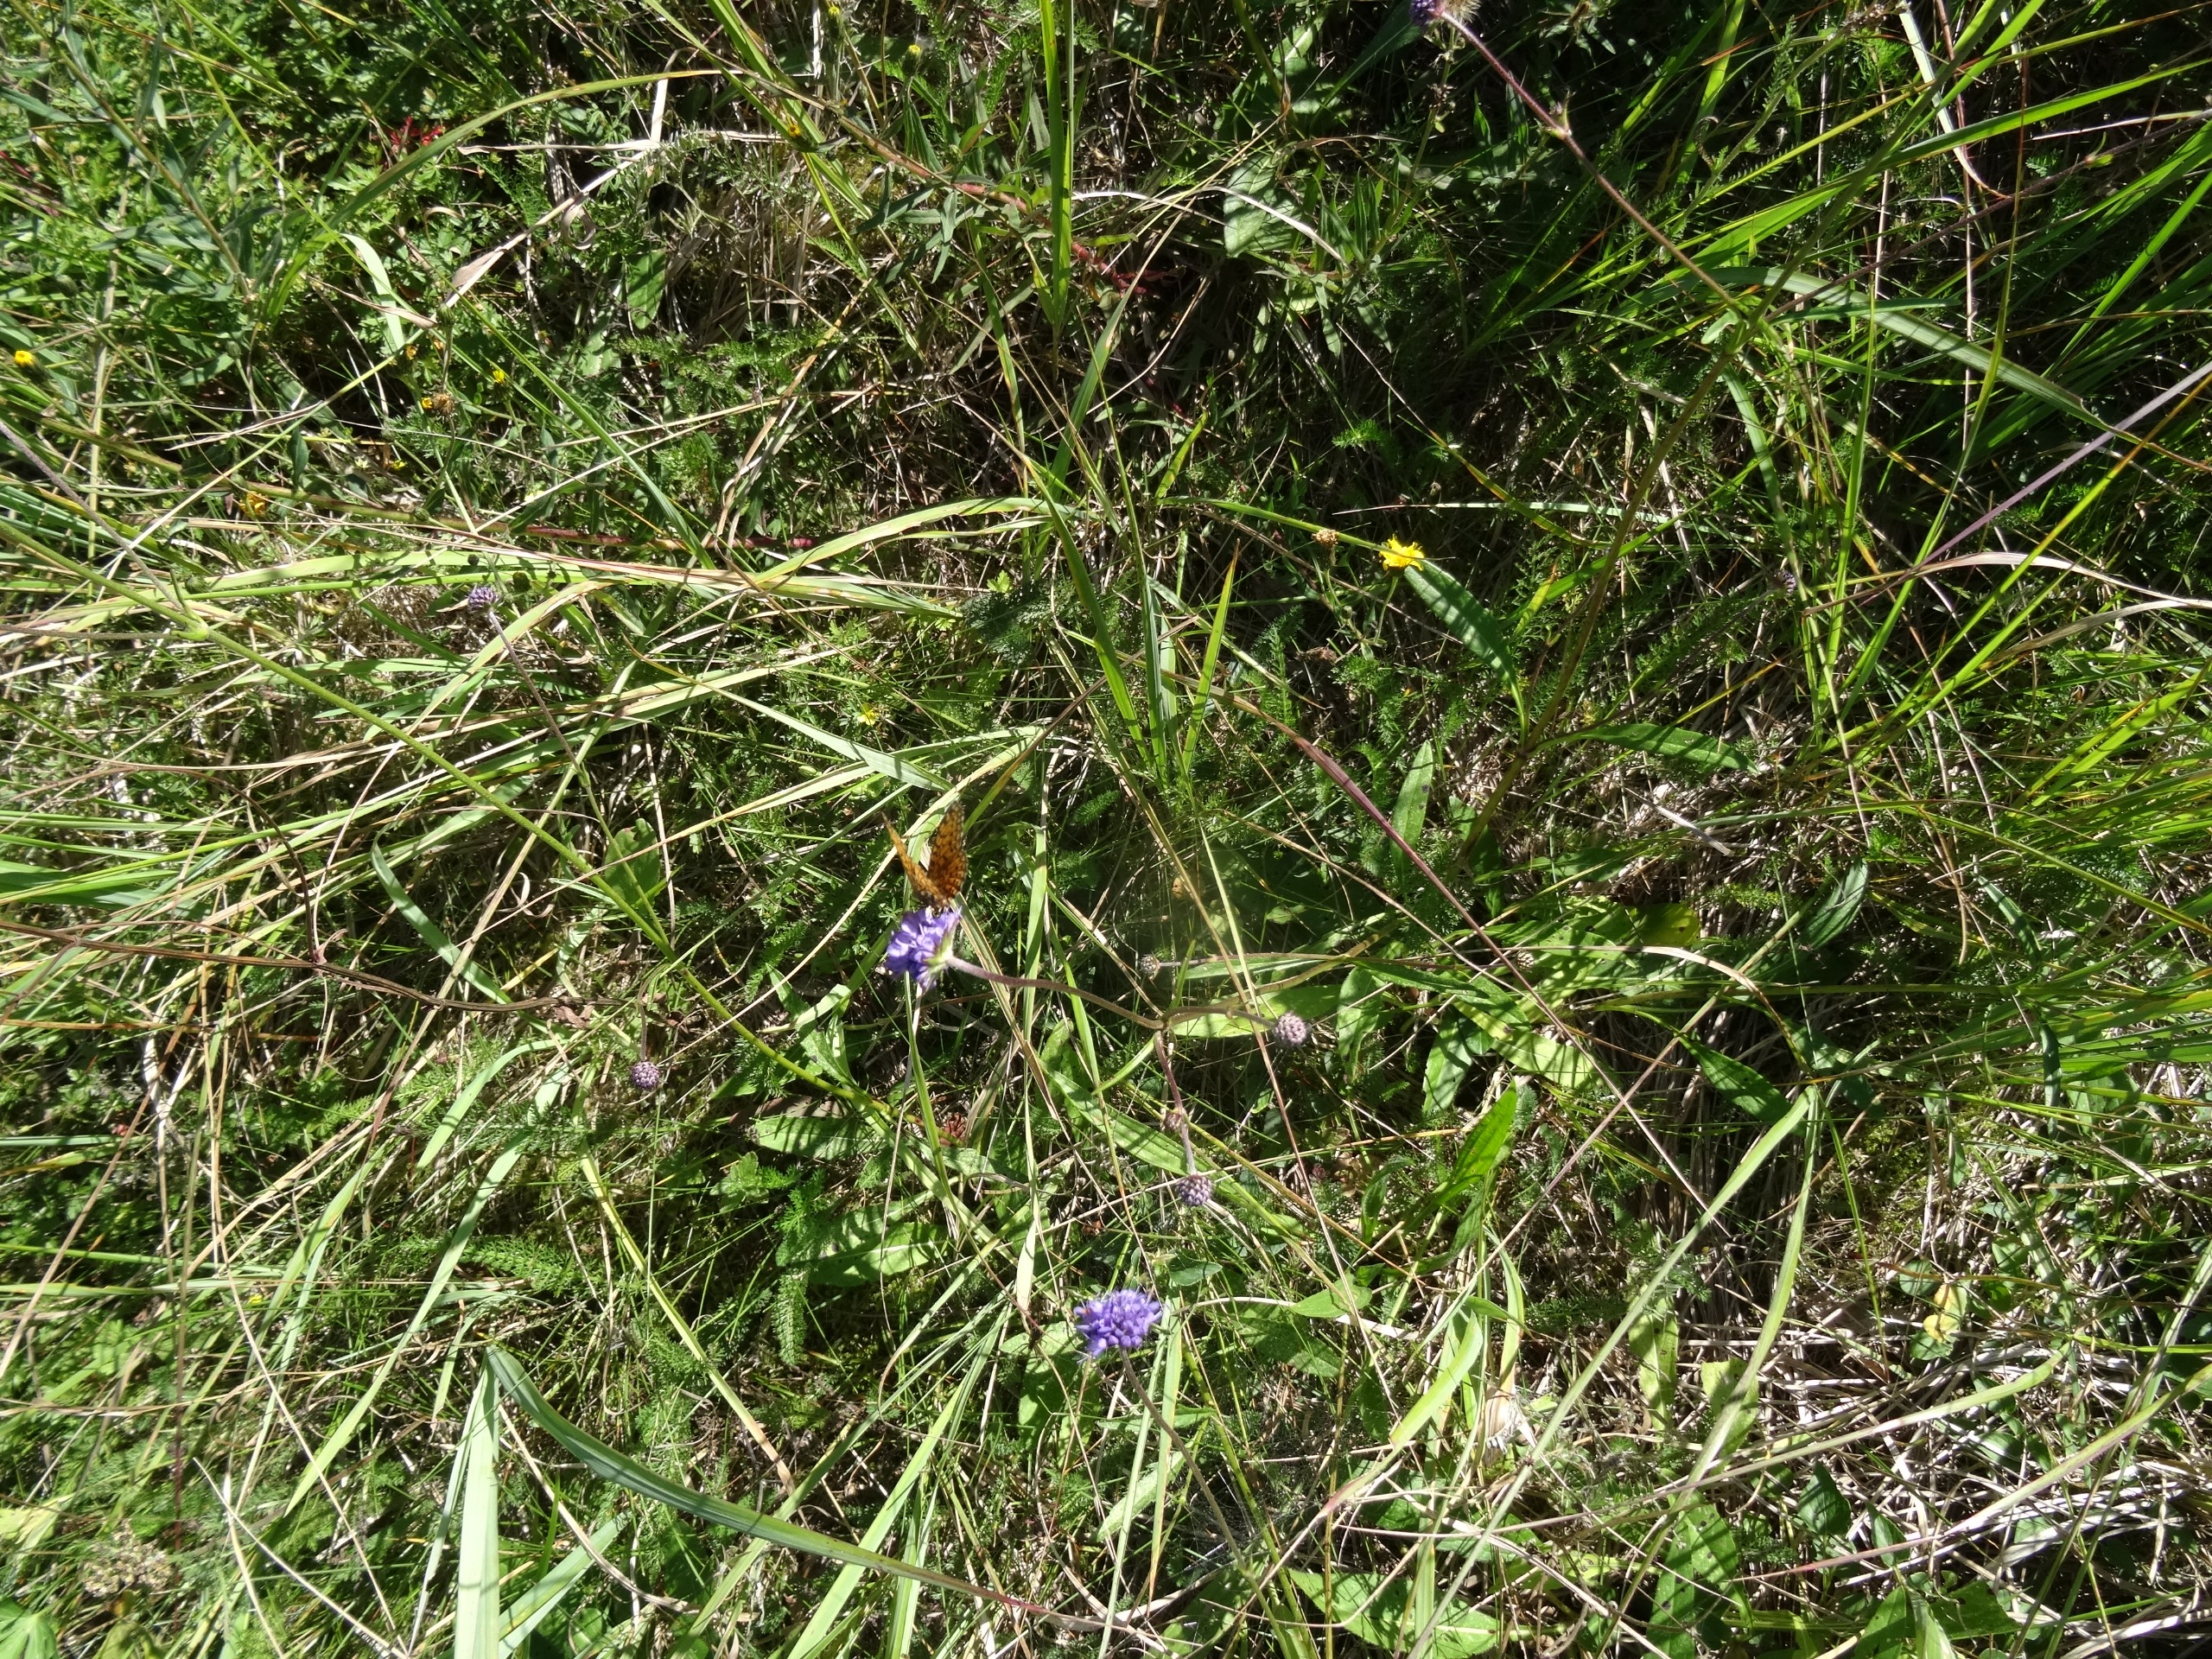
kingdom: Animalia
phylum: Arthropoda
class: Insecta
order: Lepidoptera
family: Nymphalidae
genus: Boloria
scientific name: Boloria selene
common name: Brunlig perlemorsommerfugl
